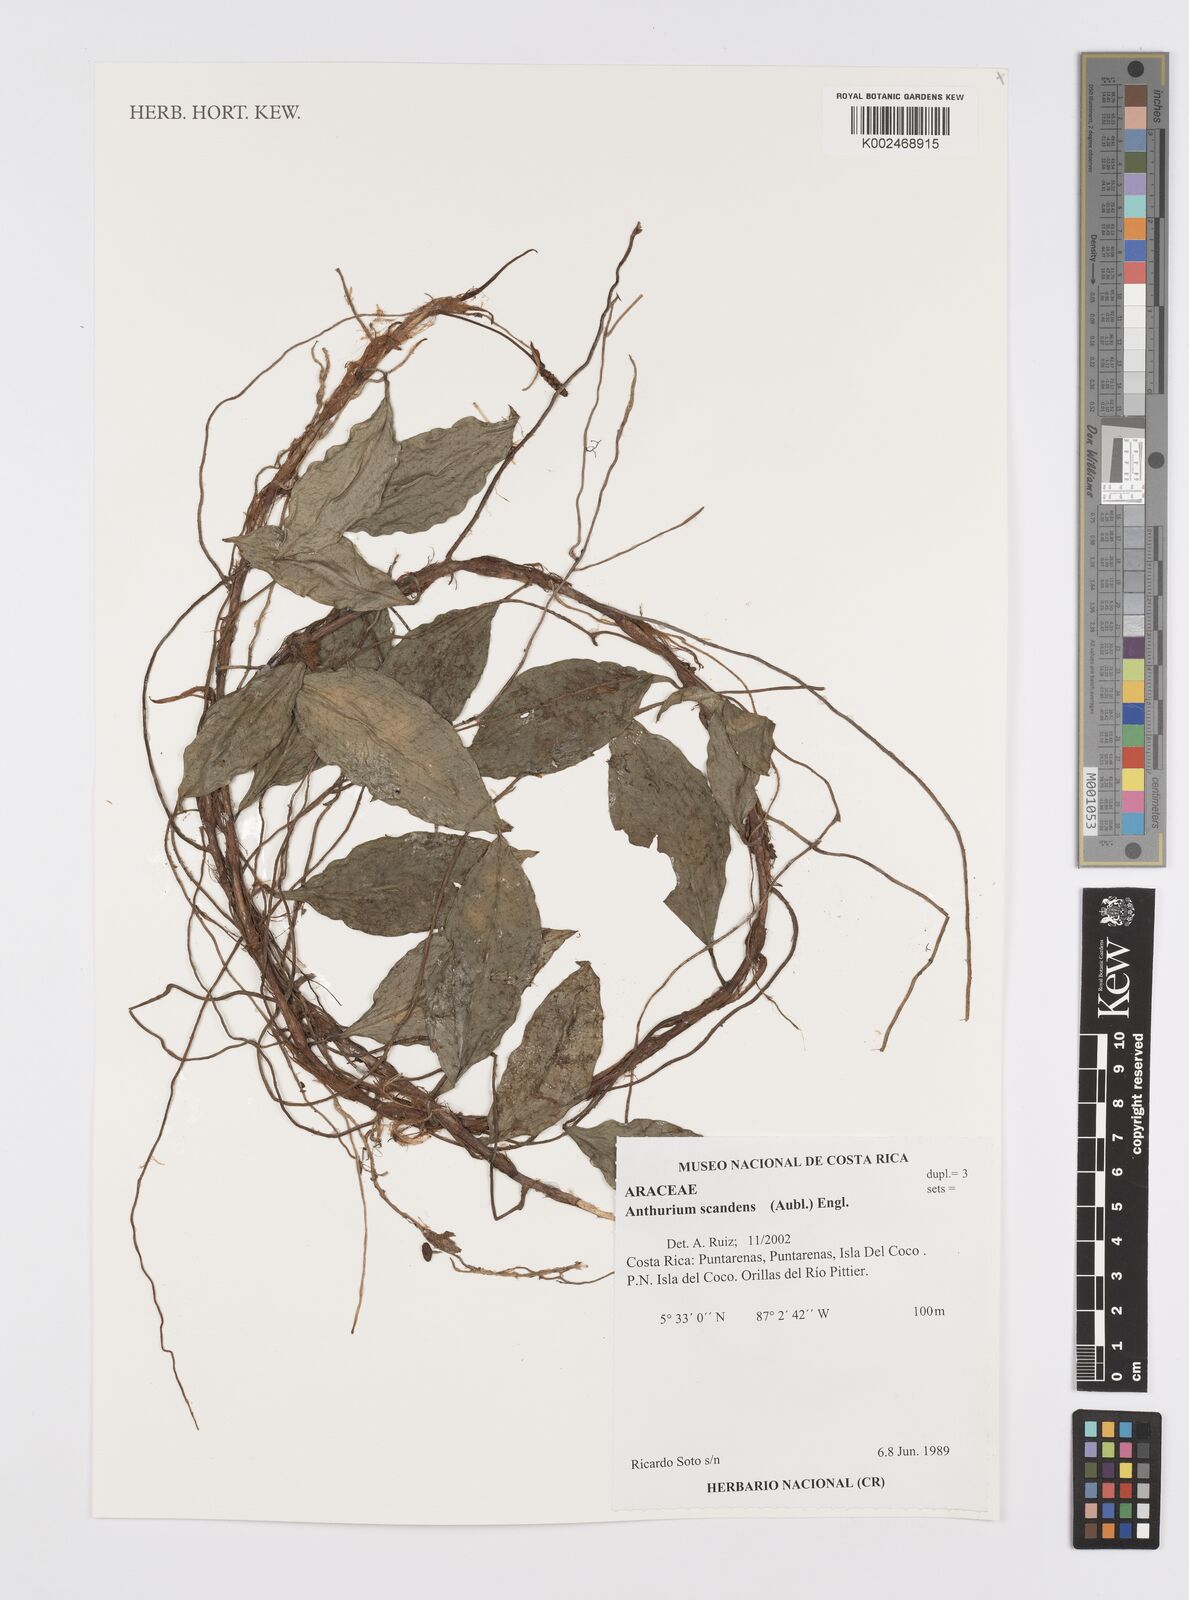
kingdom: Plantae
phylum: Tracheophyta
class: Liliopsida
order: Alismatales
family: Araceae
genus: Anthurium
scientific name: Anthurium scandens
